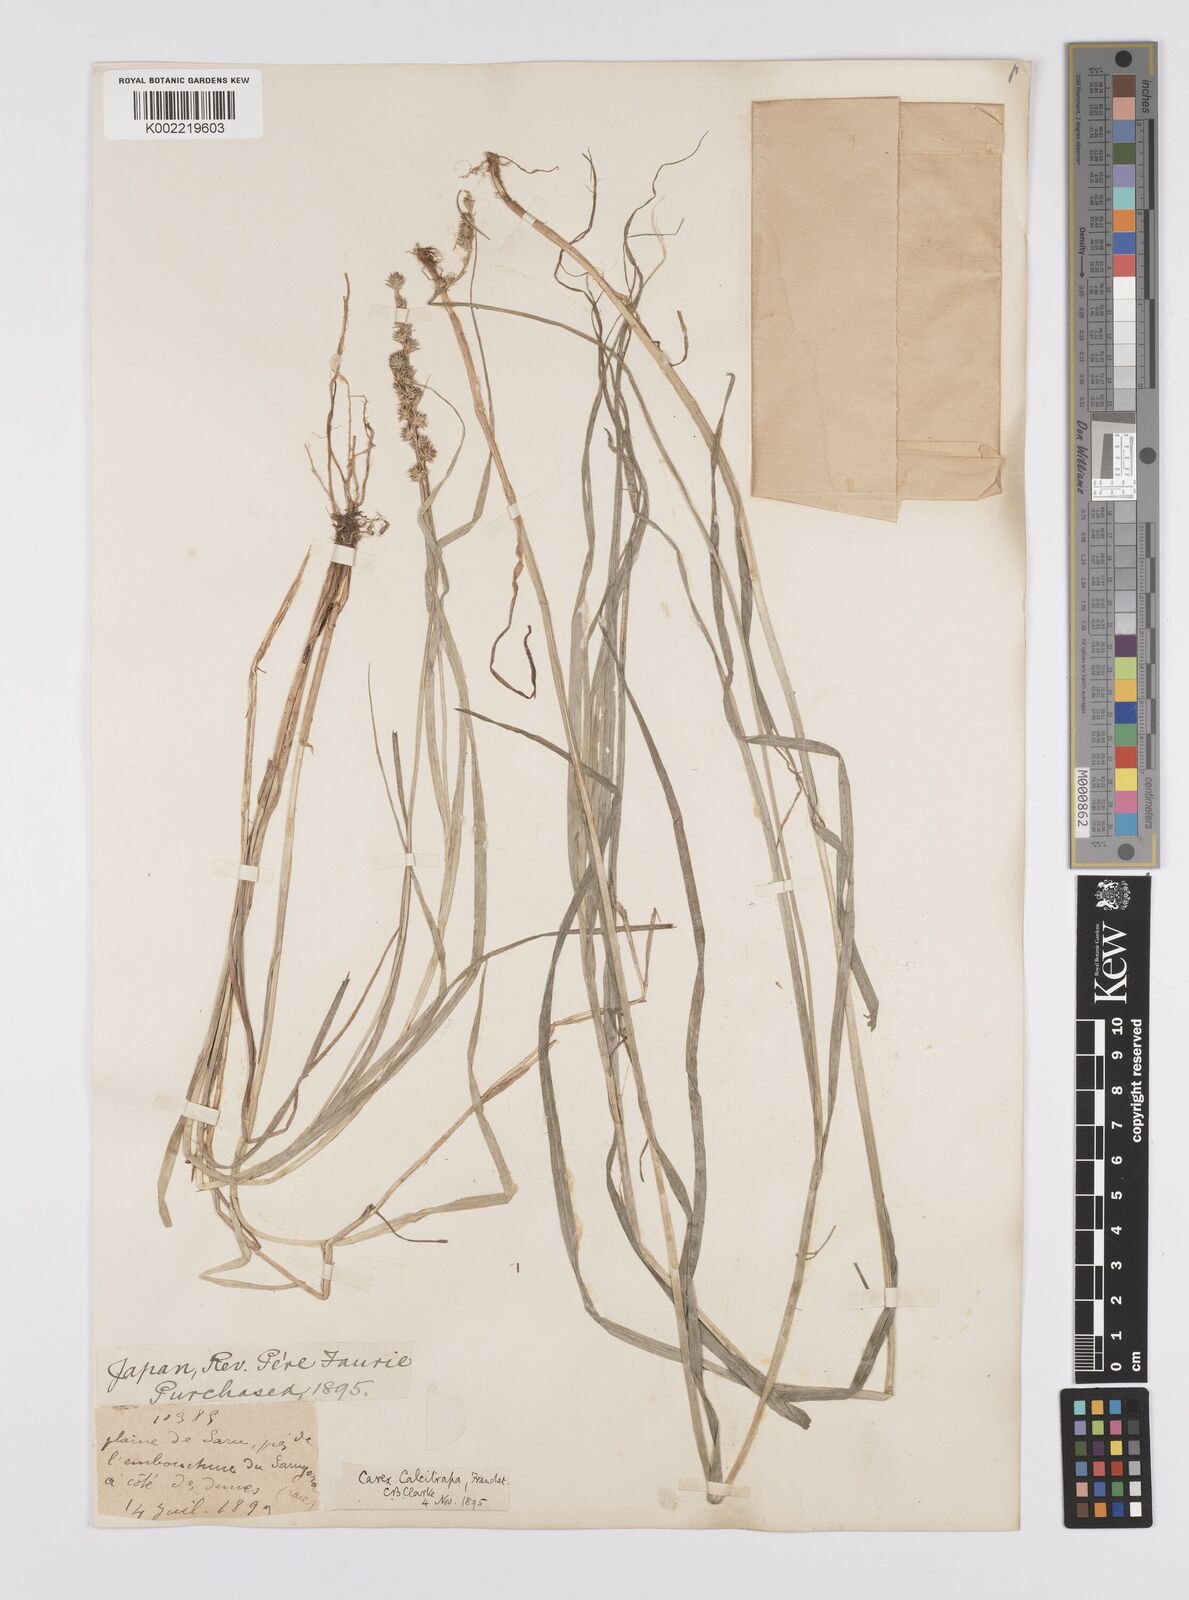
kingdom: Plantae
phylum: Tracheophyta
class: Liliopsida
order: Poales
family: Cyperaceae
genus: Carex
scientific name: Carex maackii
